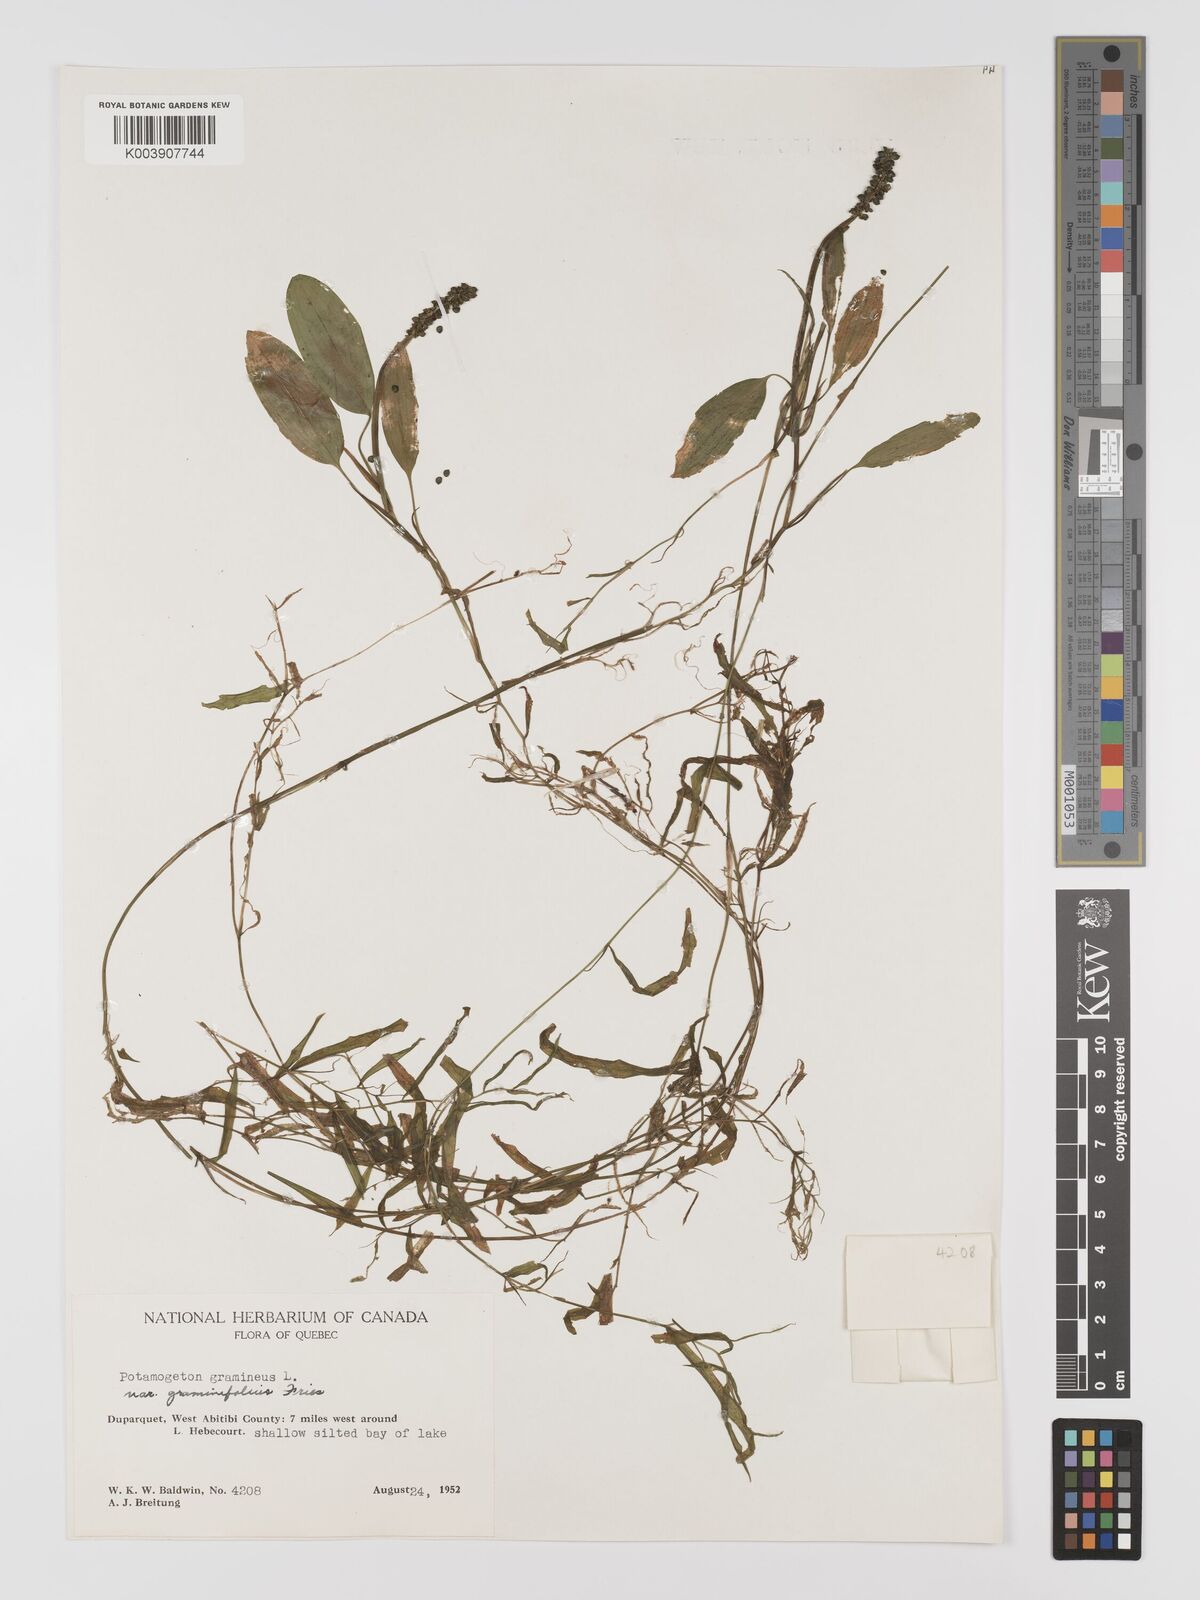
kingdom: Plantae
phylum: Tracheophyta
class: Liliopsida
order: Alismatales
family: Potamogetonaceae
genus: Potamogeton
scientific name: Potamogeton gramineus
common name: Various-leaved pondweed
